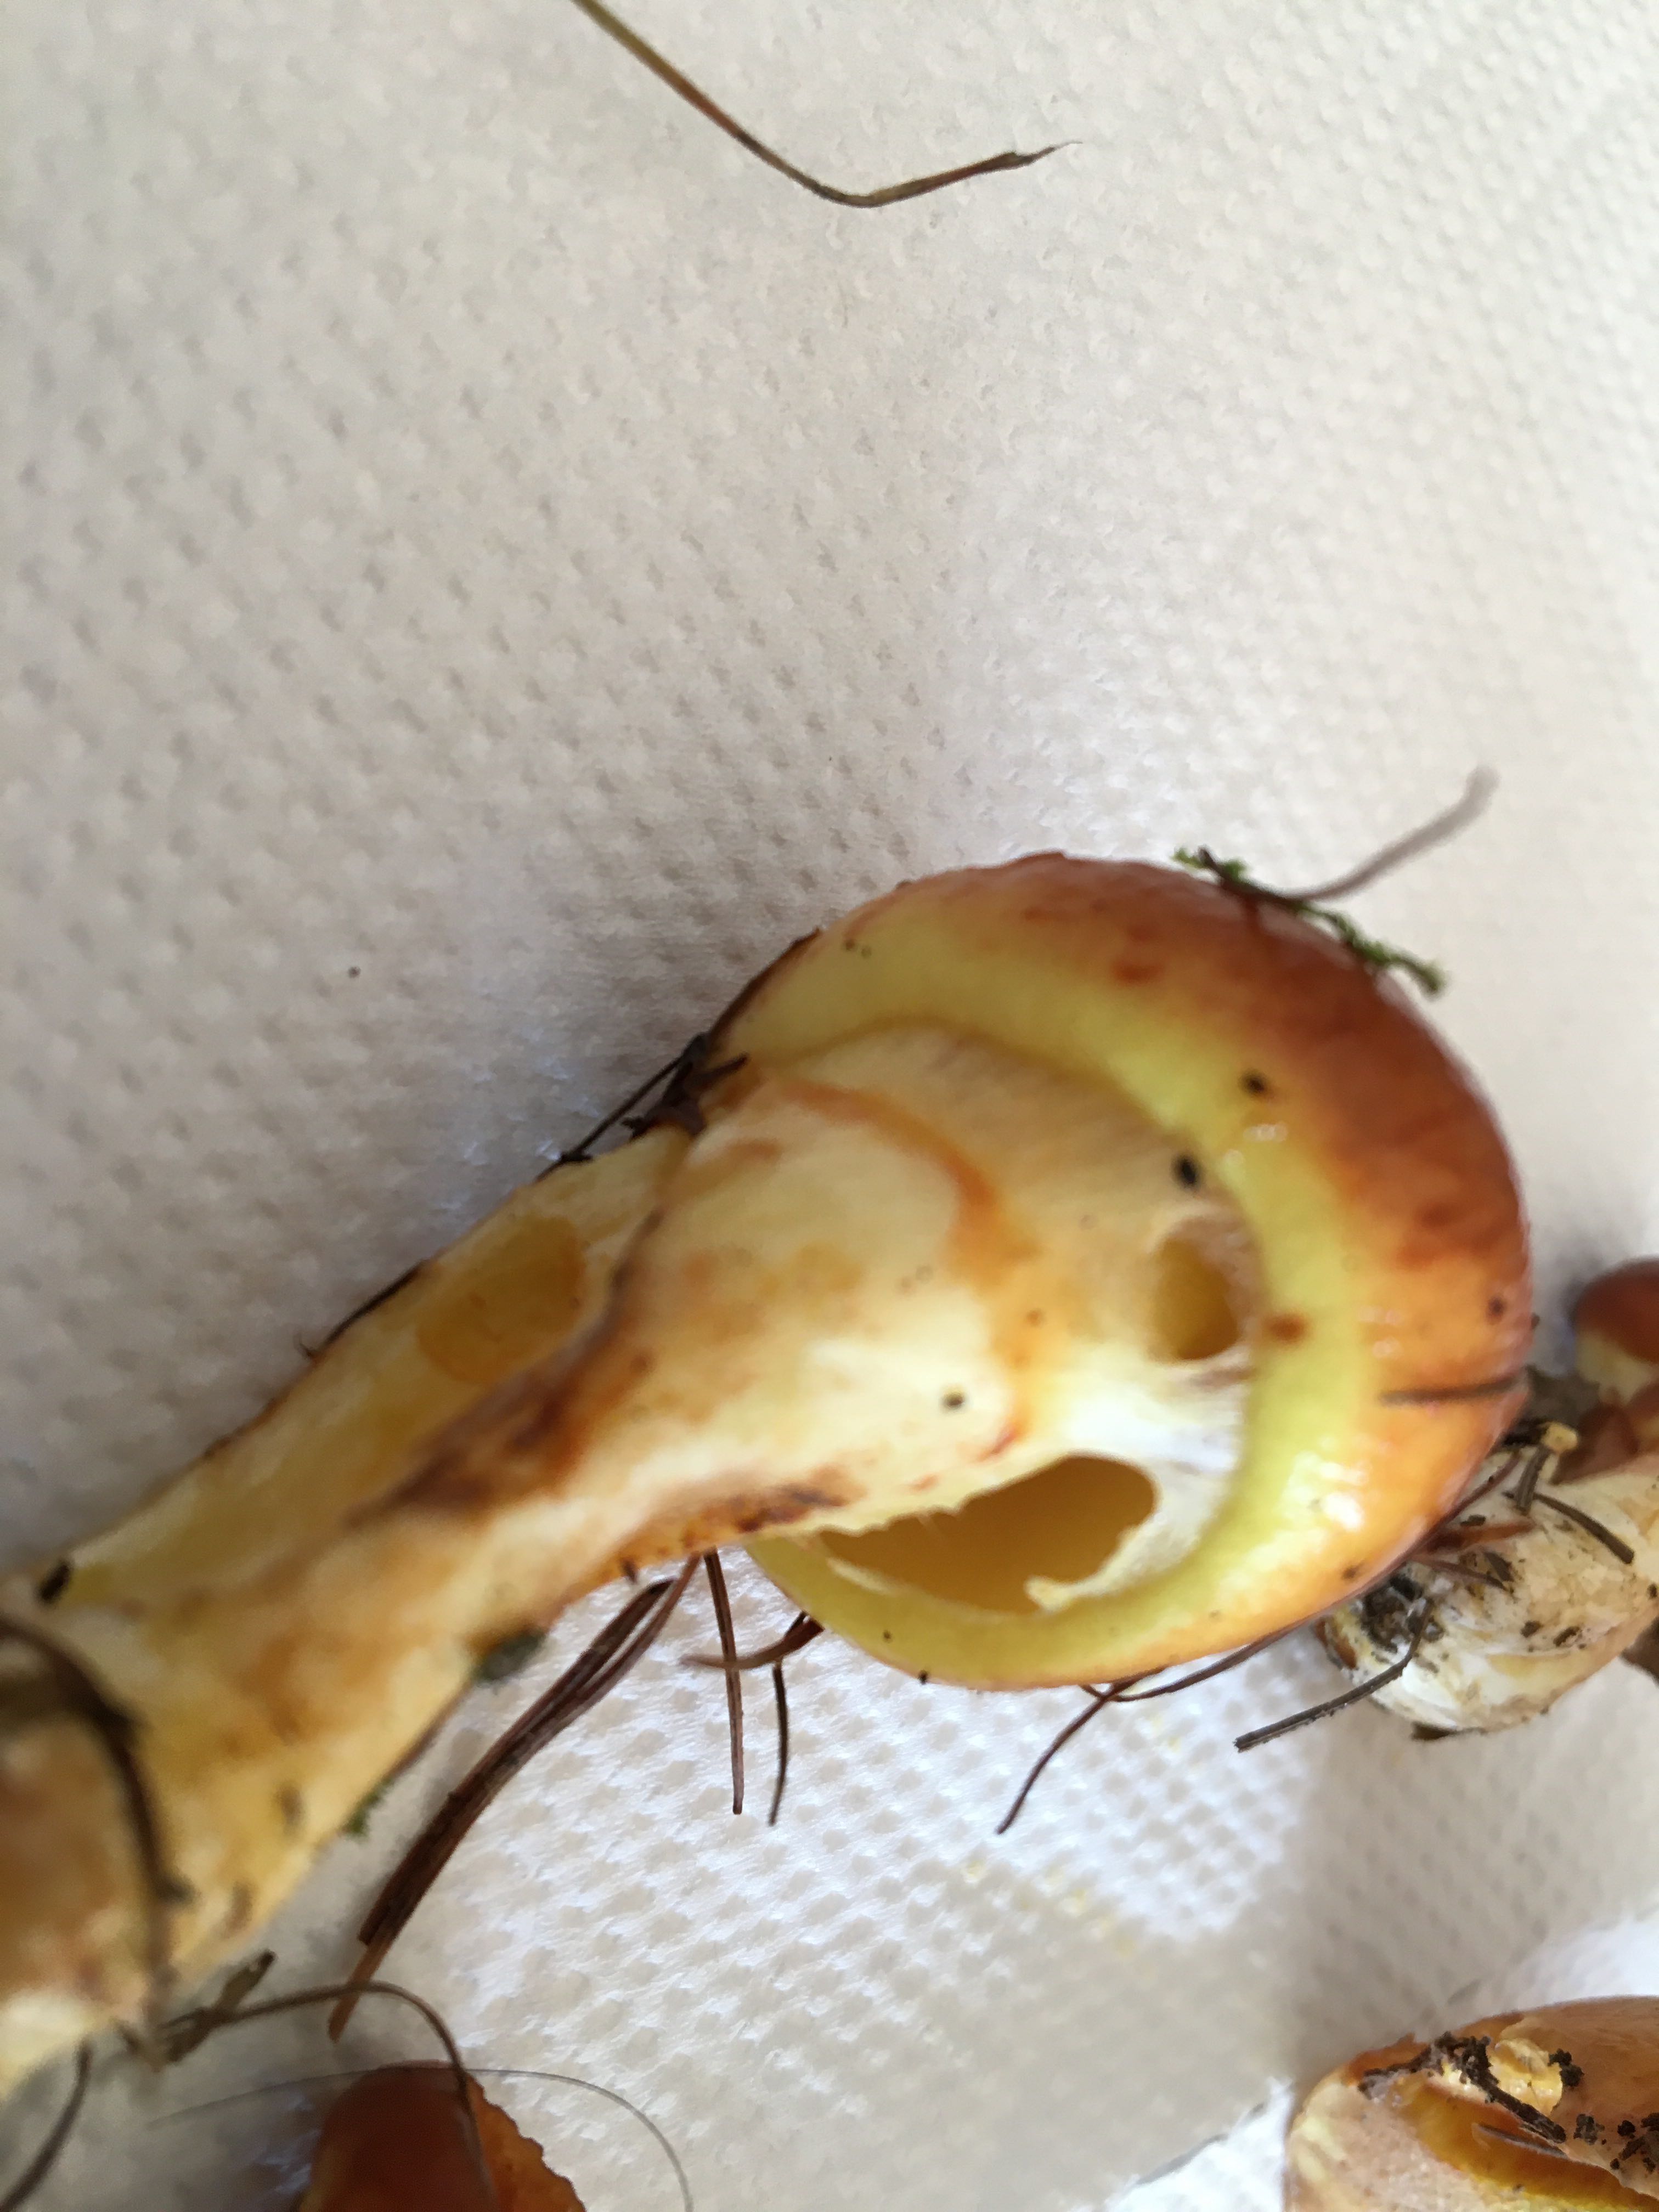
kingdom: Fungi
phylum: Basidiomycota
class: Agaricomycetes
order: Boletales
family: Suillaceae
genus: Suillus
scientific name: Suillus grevillei
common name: lærke-slimrørhat
